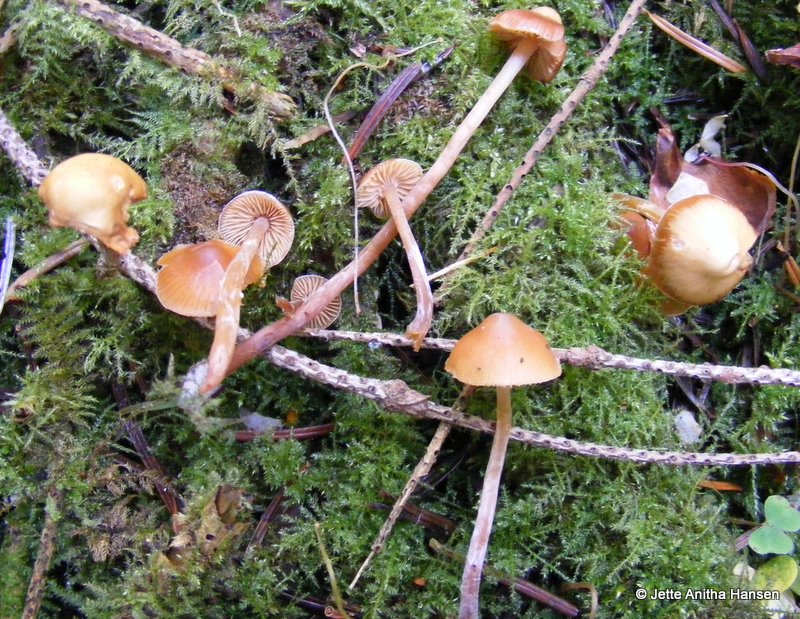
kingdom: Fungi
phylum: Basidiomycota
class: Agaricomycetes
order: Agaricales
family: Hymenogastraceae
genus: Galerina
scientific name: Galerina sideroides
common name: træflis-hjelmhat
